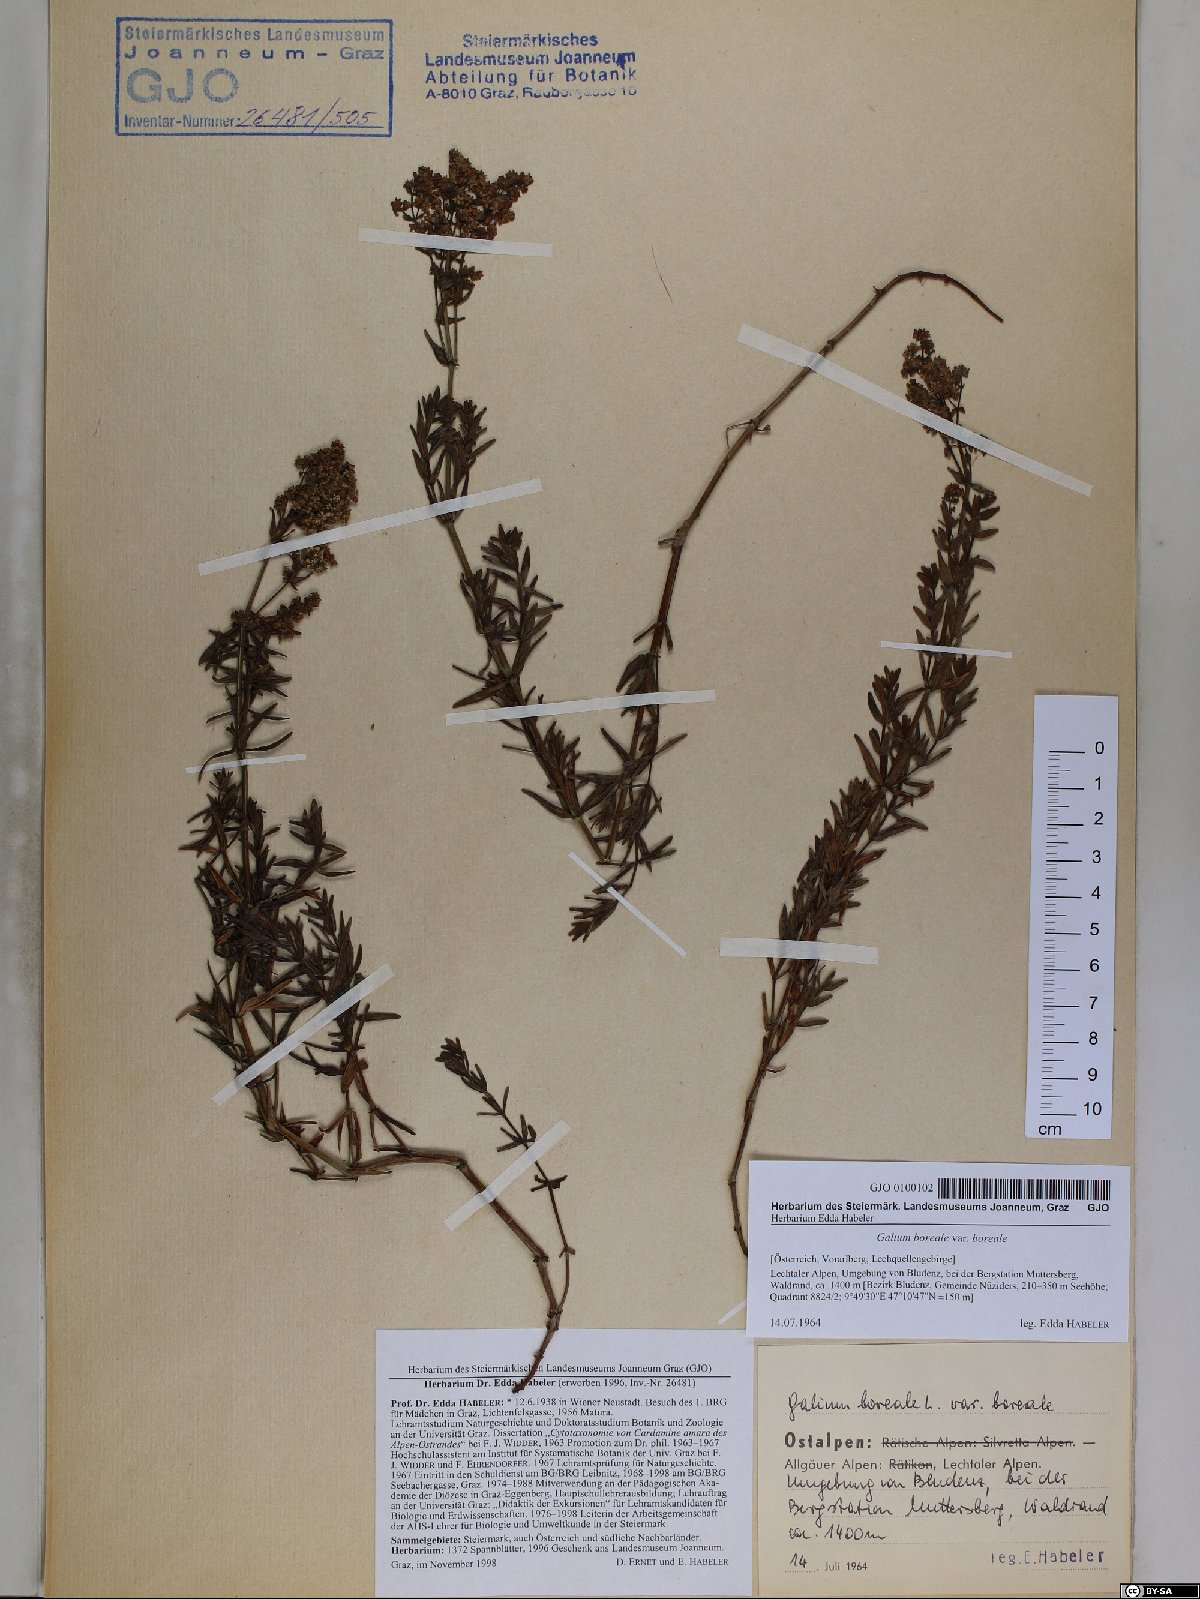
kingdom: Plantae
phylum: Tracheophyta
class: Magnoliopsida
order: Gentianales
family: Rubiaceae
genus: Galium
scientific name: Galium boreale
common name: Northern bedstraw
